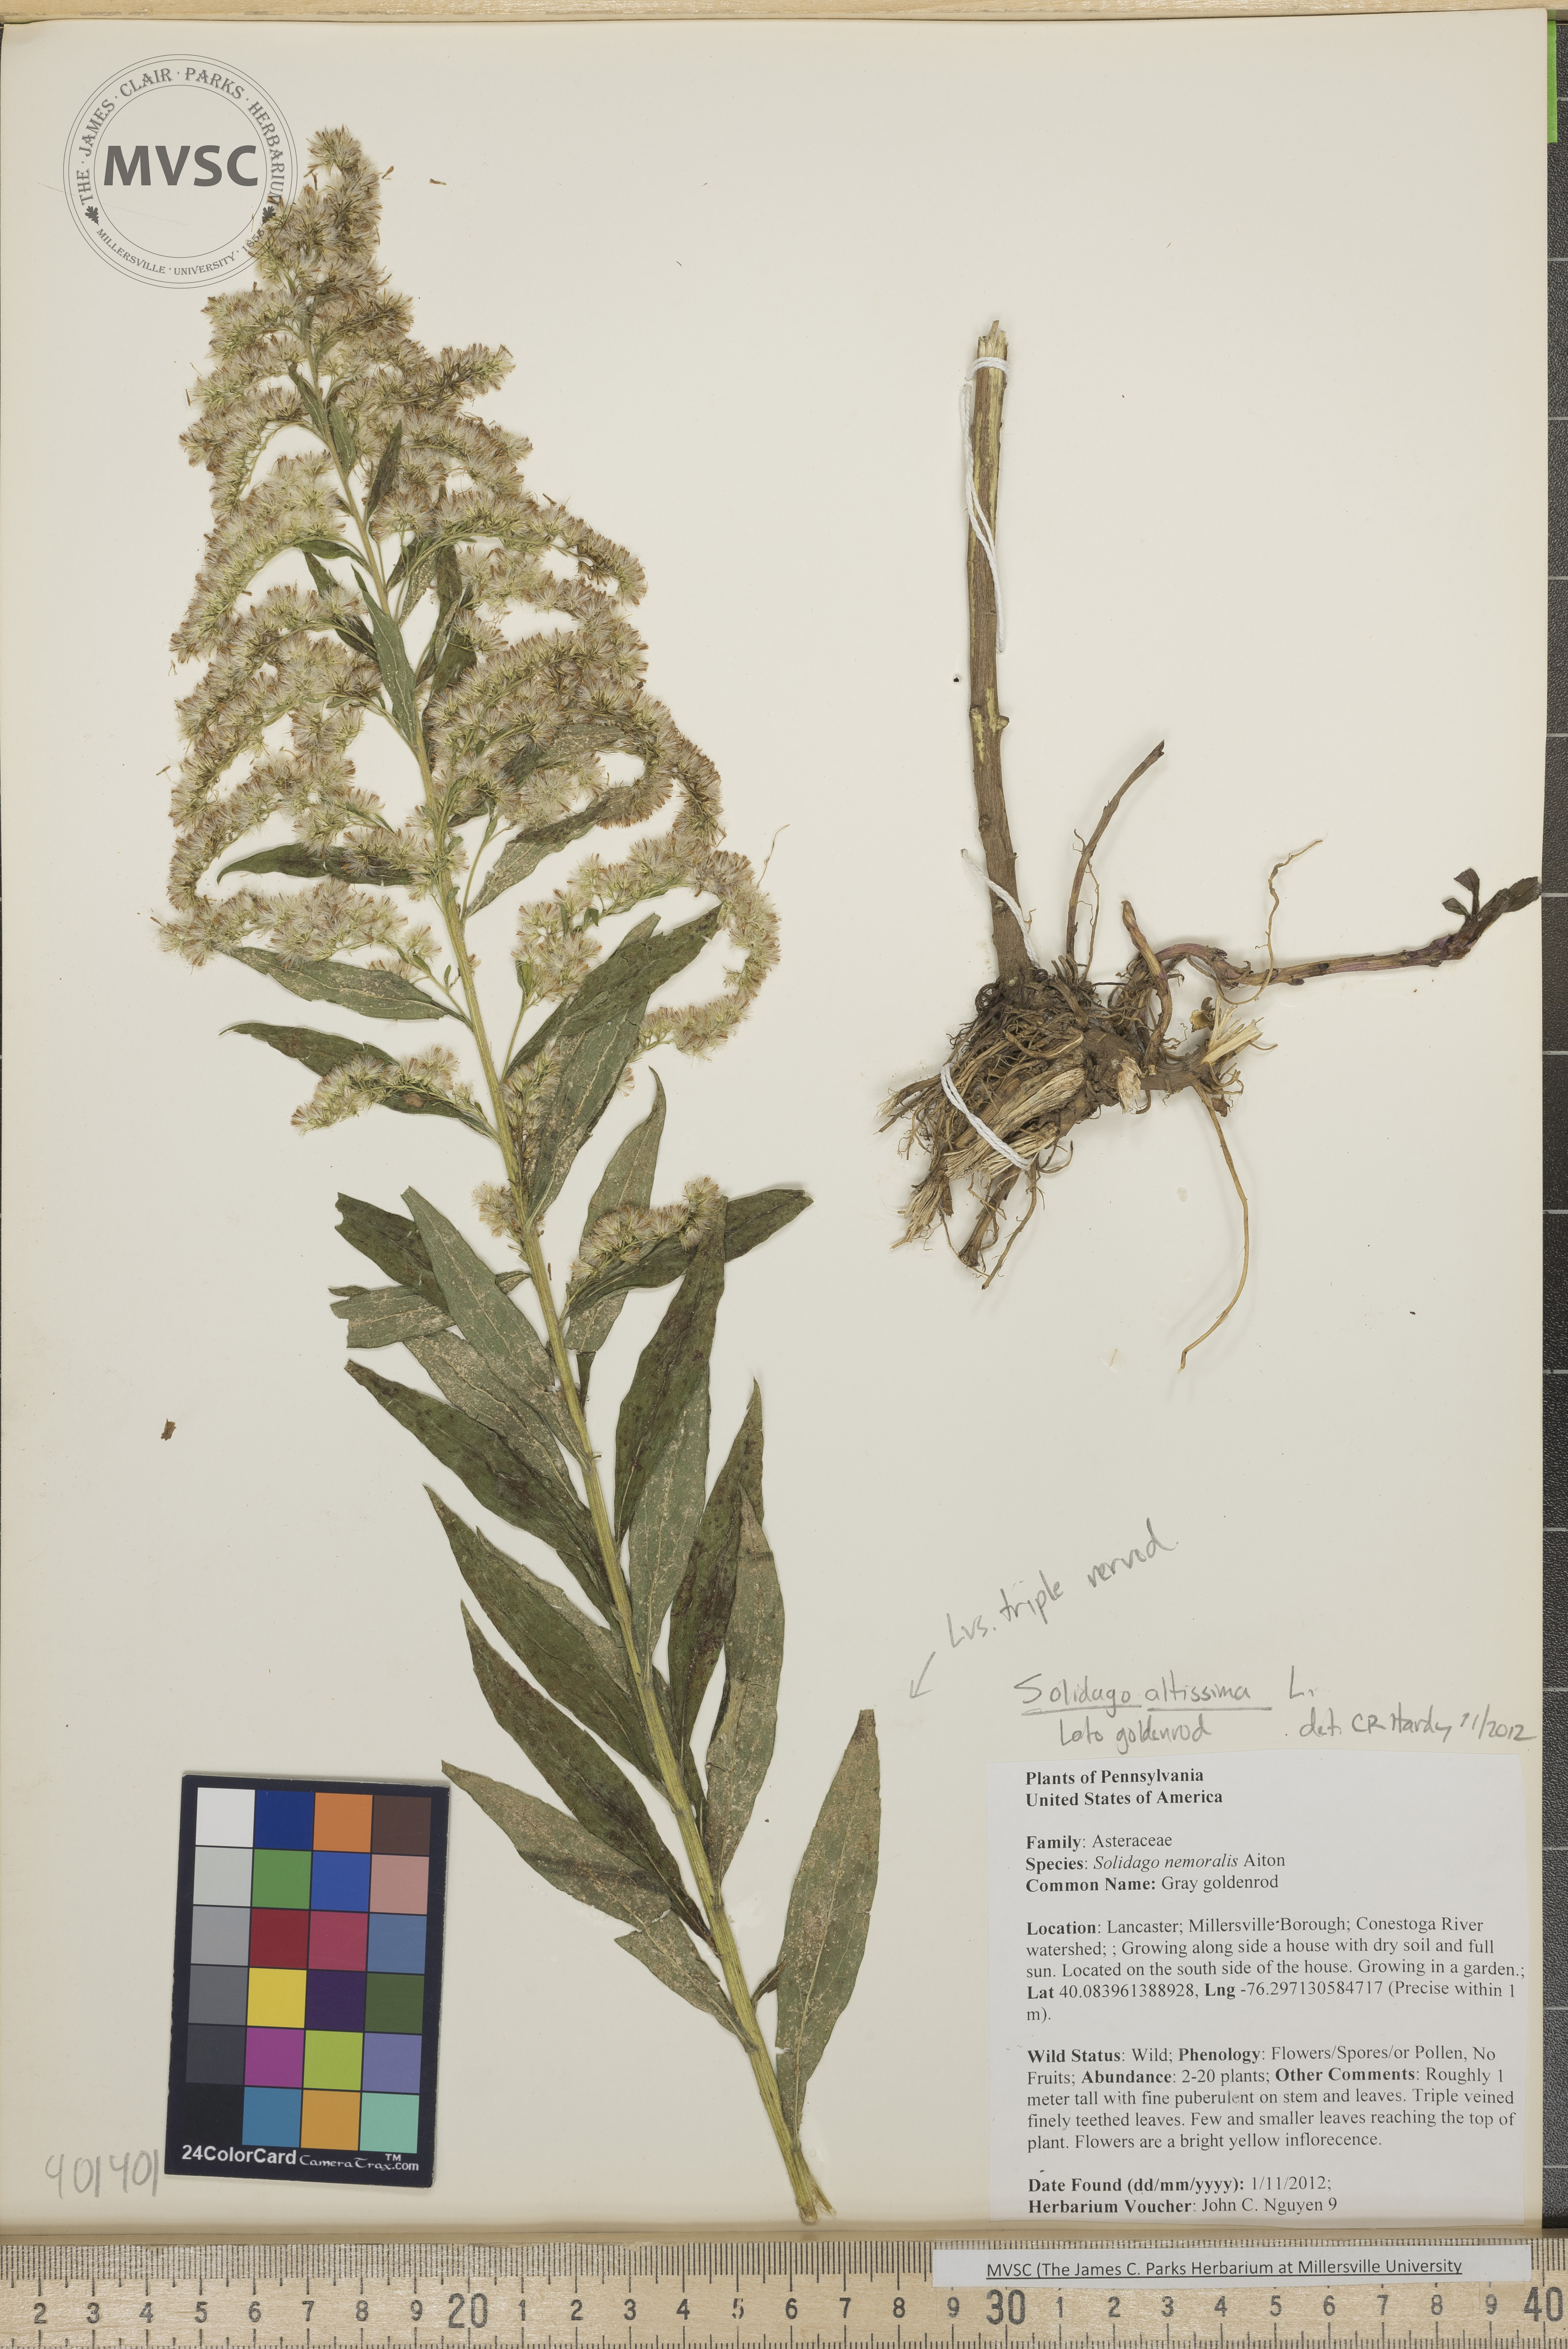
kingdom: Plantae
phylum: Tracheophyta
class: Magnoliopsida
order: Asterales
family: Asteraceae
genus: Solidago
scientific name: Solidago altissima
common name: Late goldenrod
